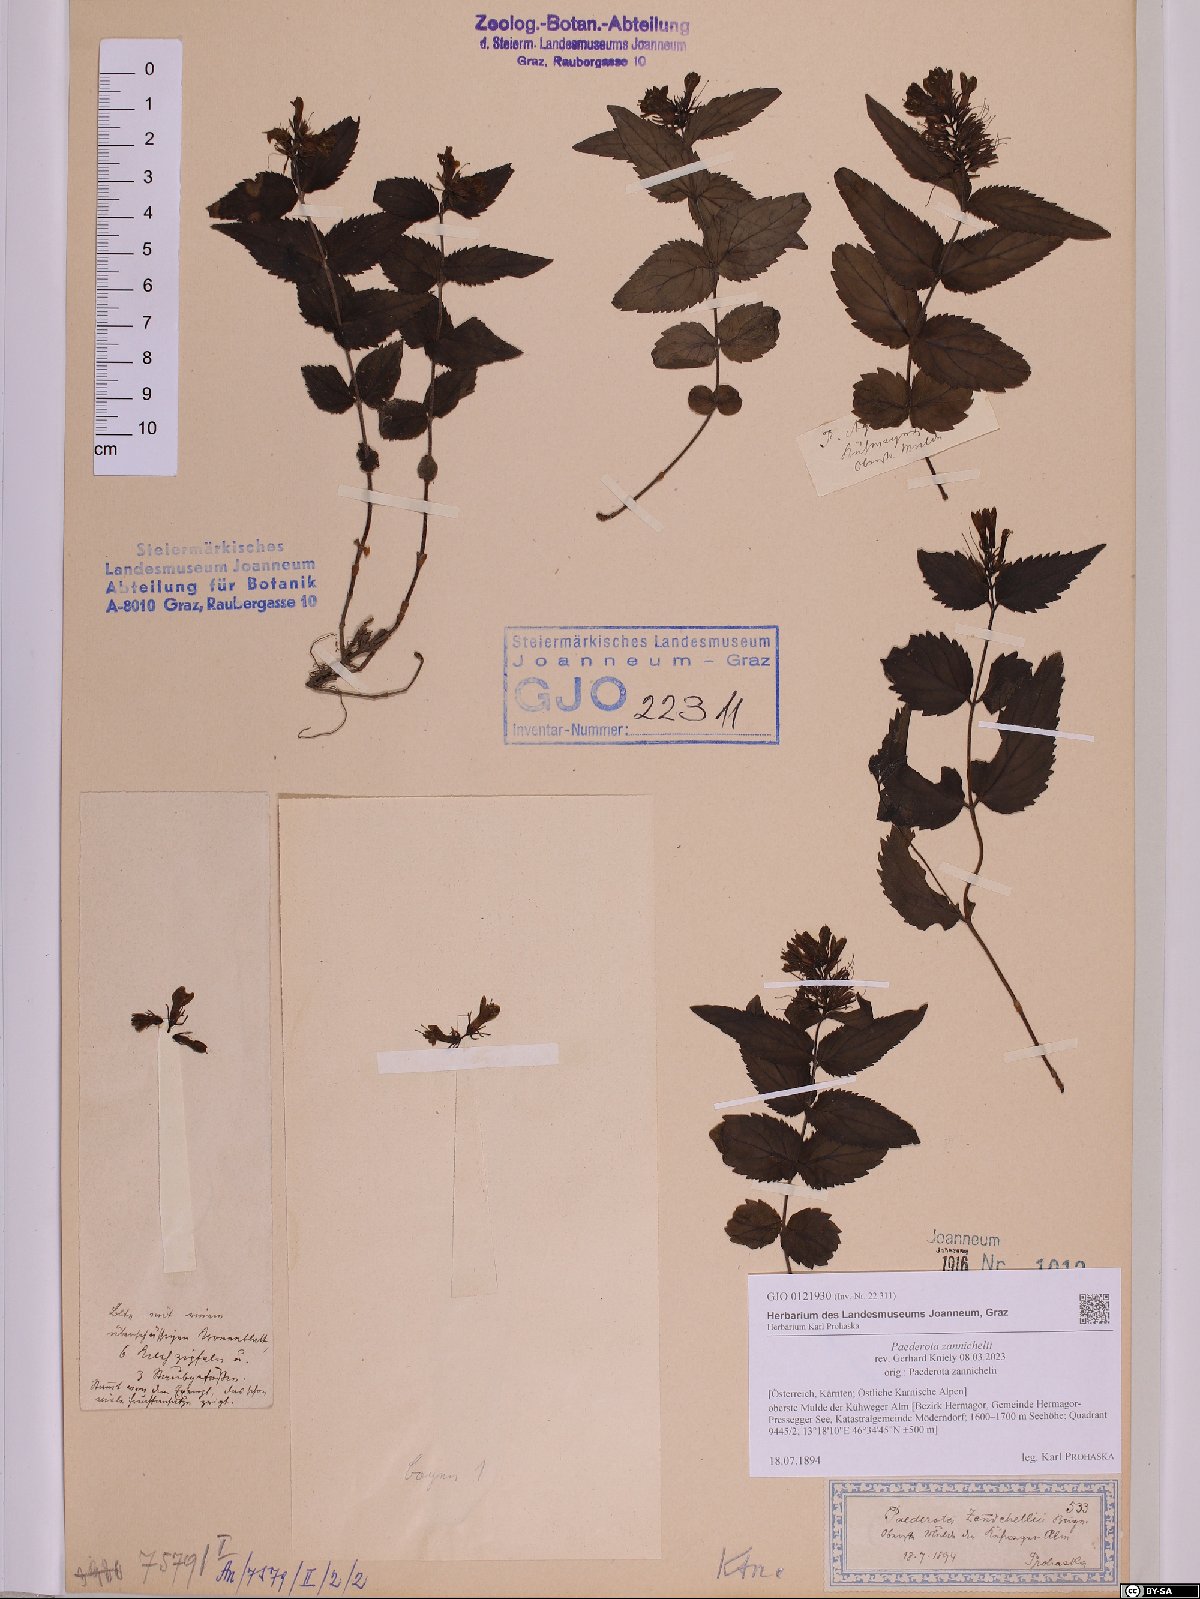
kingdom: Plantae
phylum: Tracheophyta
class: Magnoliopsida
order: Lamiales
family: Plantaginaceae
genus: Paederota
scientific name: Paederota lutea
